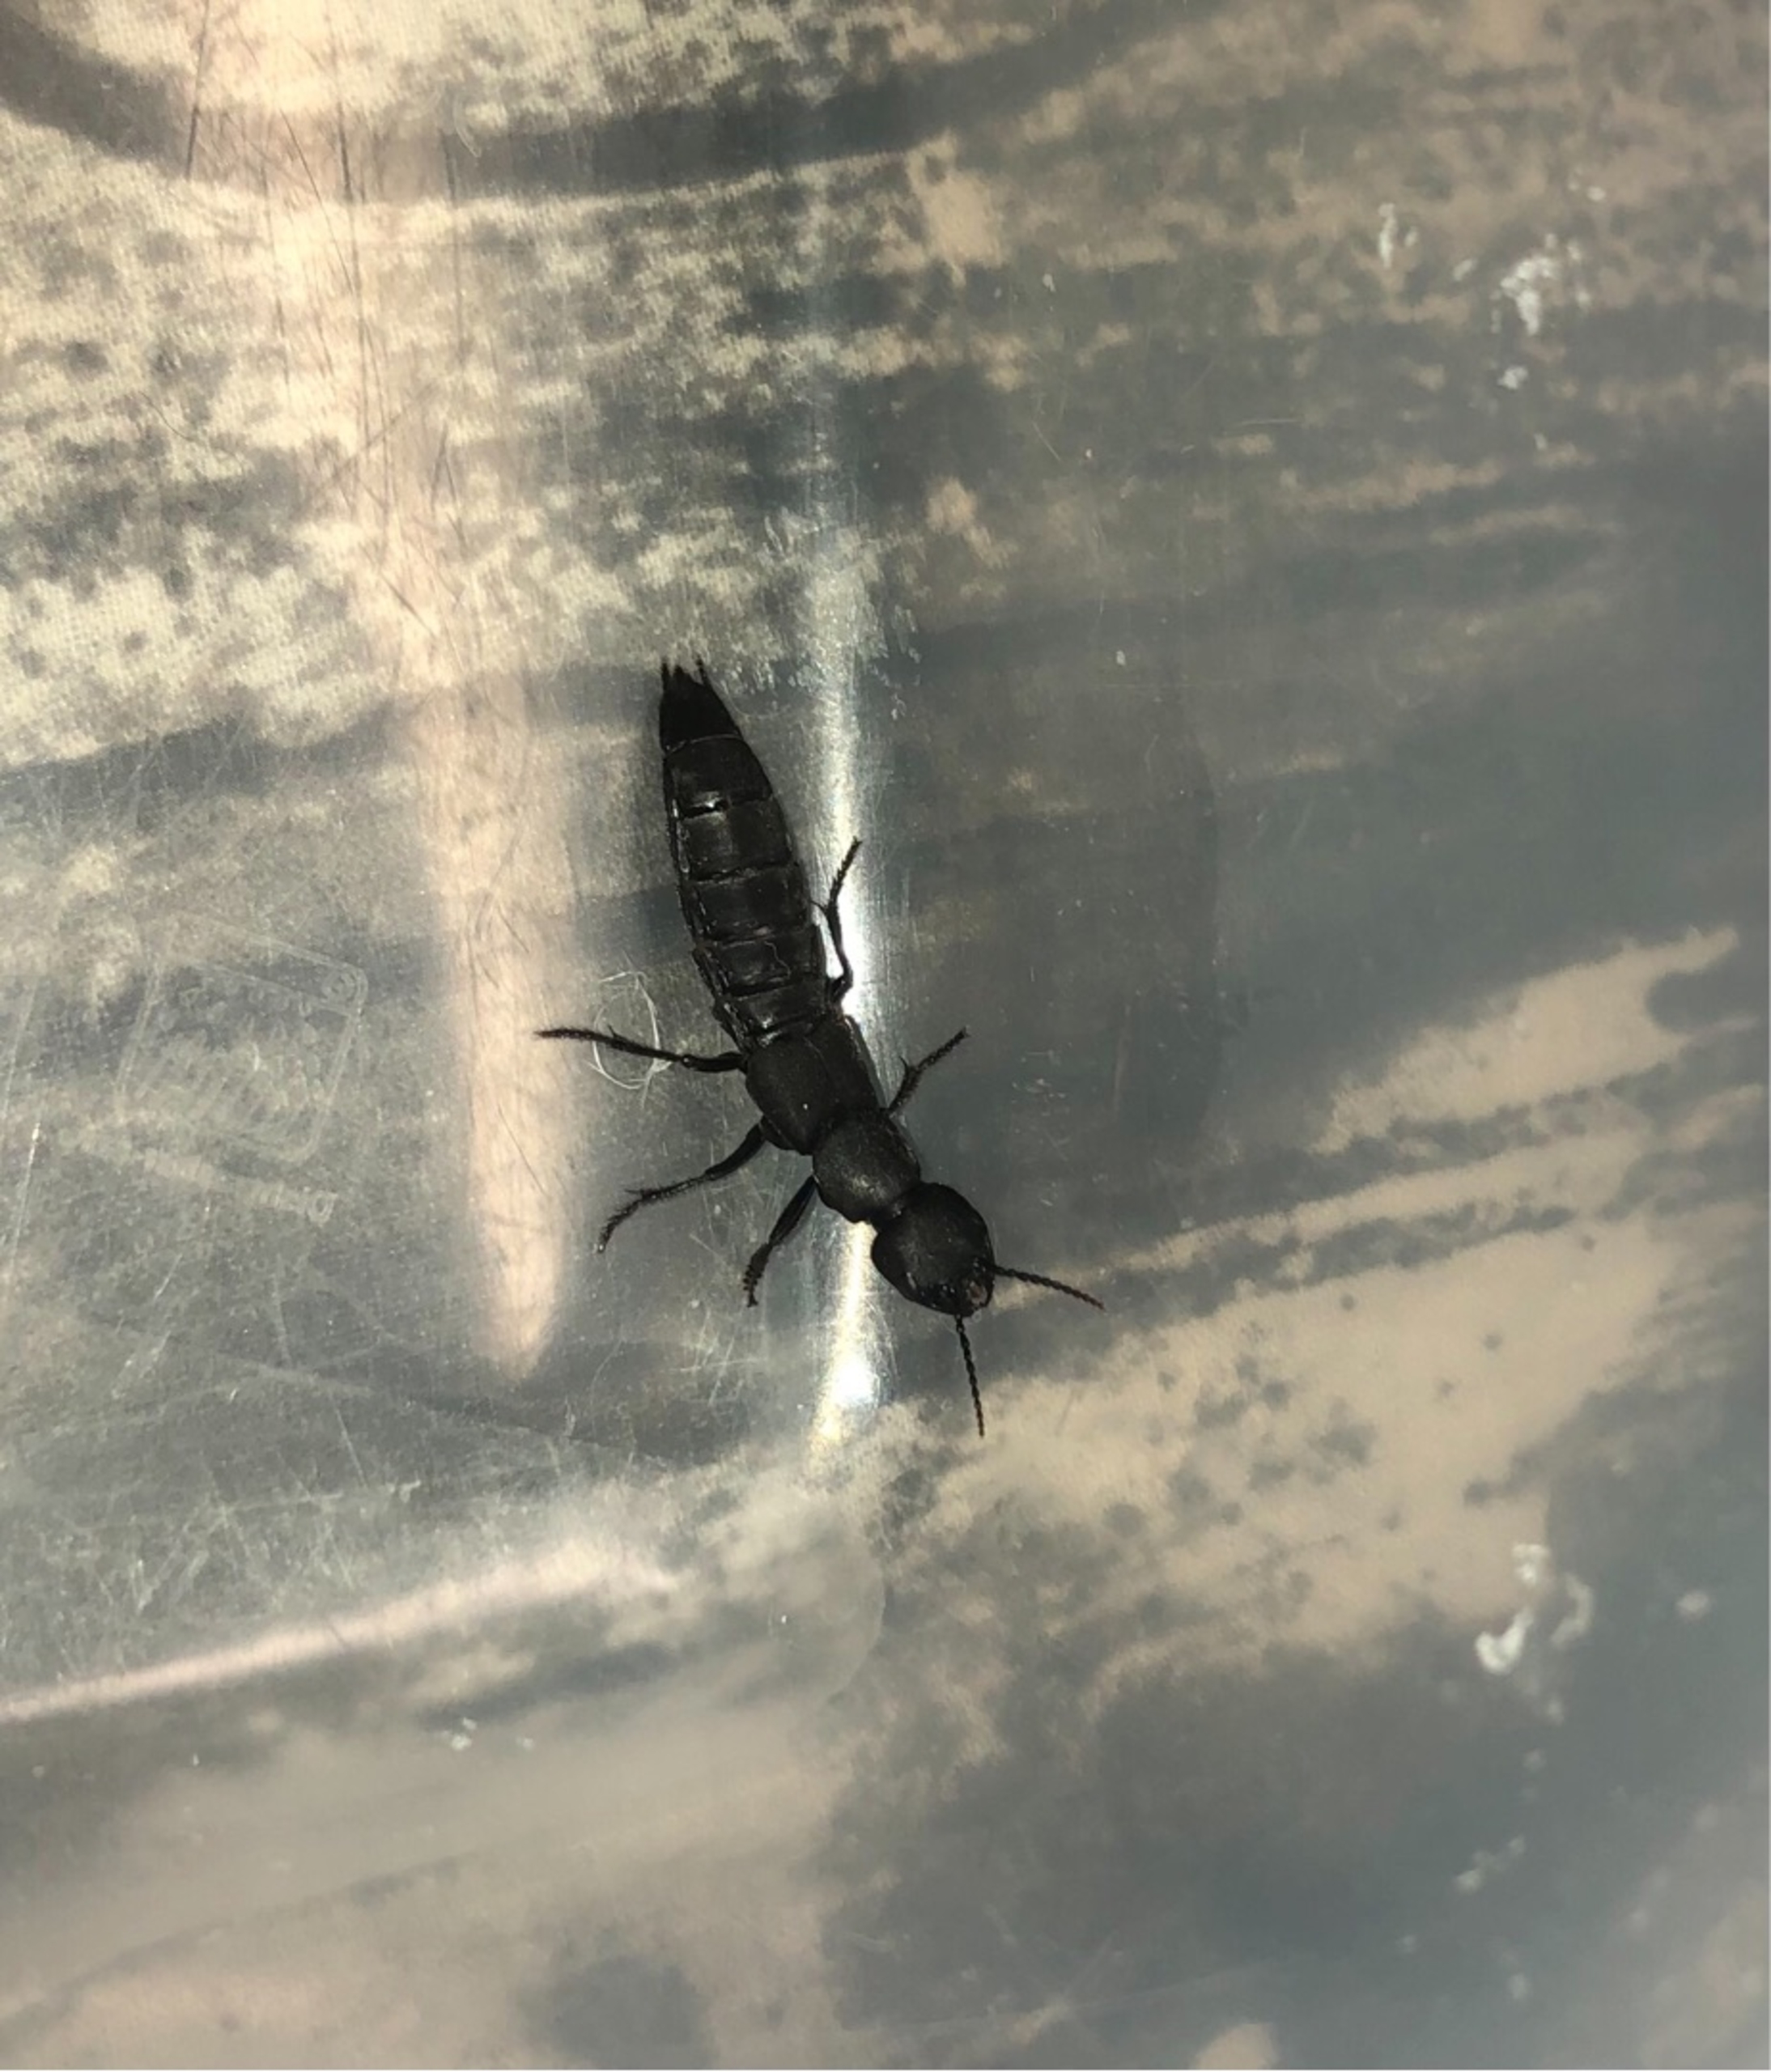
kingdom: Animalia
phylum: Arthropoda
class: Insecta
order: Coleoptera
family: Staphylinidae
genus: Ocypus
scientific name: Ocypus olens
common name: Stor rovbille
